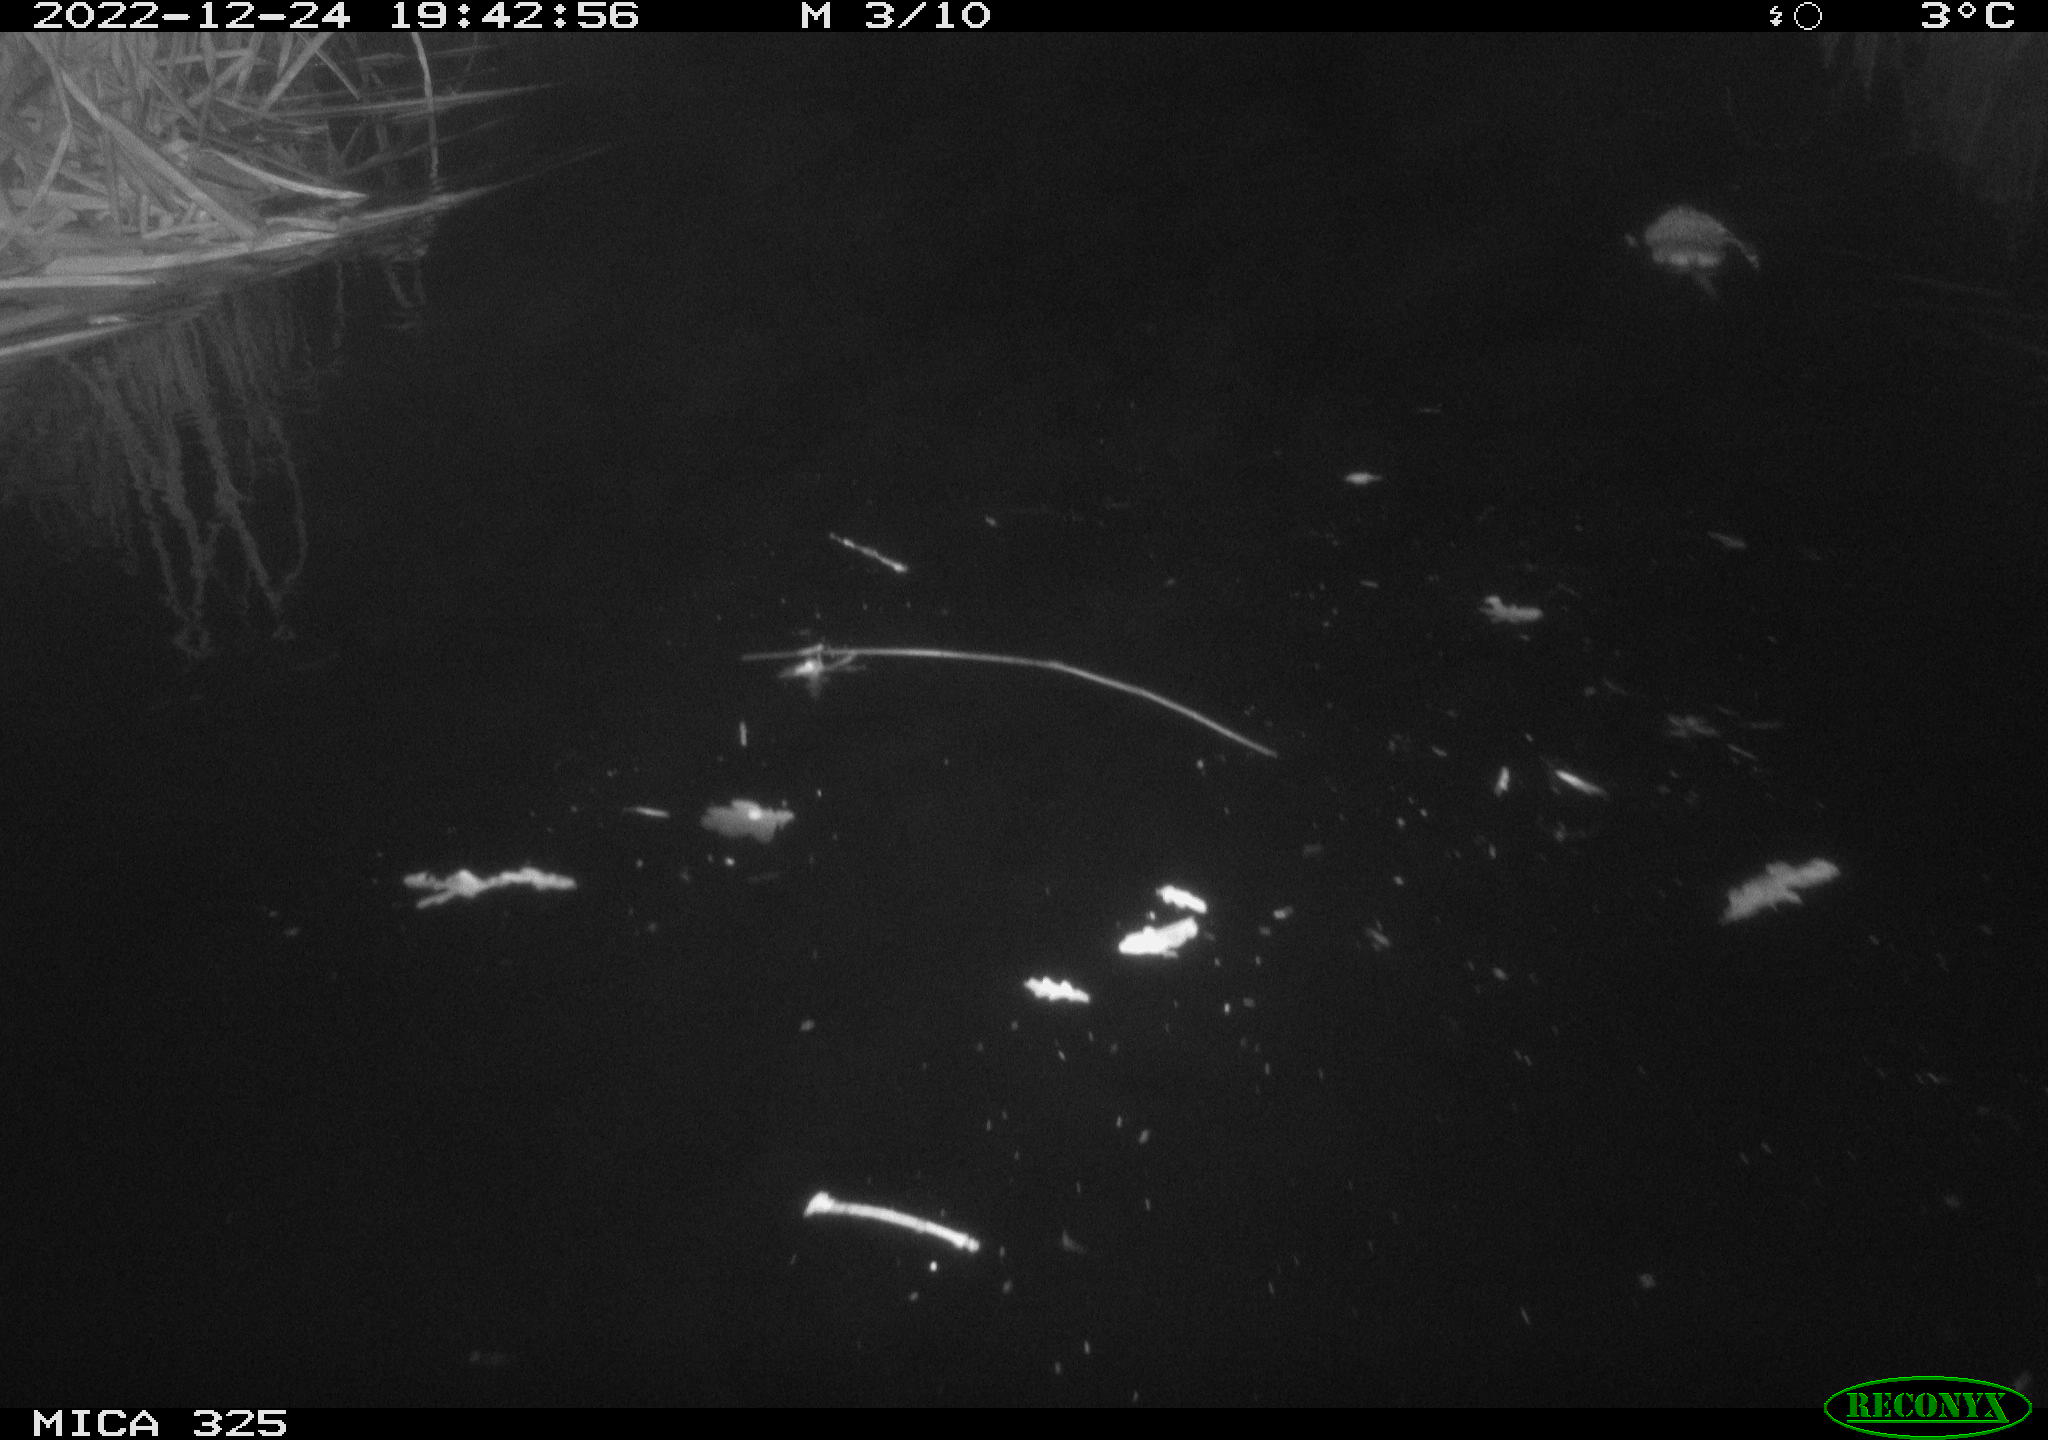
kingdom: Animalia
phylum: Chordata
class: Mammalia
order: Rodentia
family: Cricetidae
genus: Ondatra
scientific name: Ondatra zibethicus
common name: Muskrat
